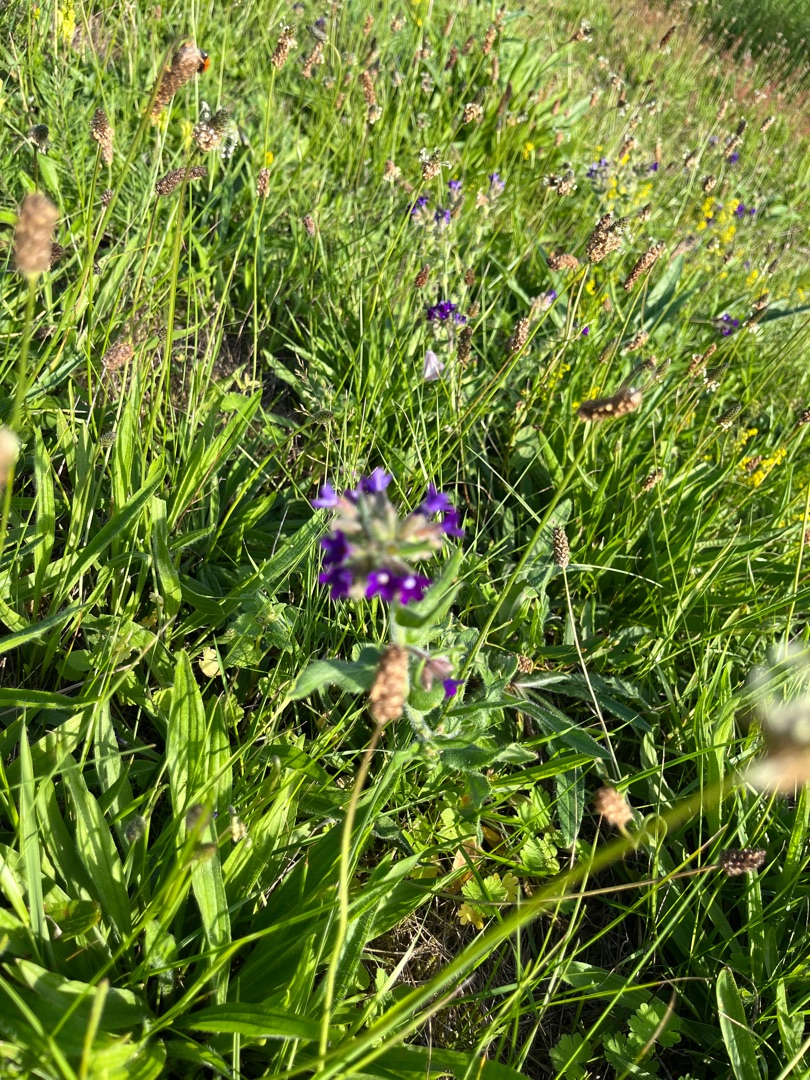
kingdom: Plantae
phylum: Tracheophyta
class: Magnoliopsida
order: Boraginales
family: Boraginaceae
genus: Anchusa
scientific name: Anchusa officinalis
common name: Læge-oksetunge
